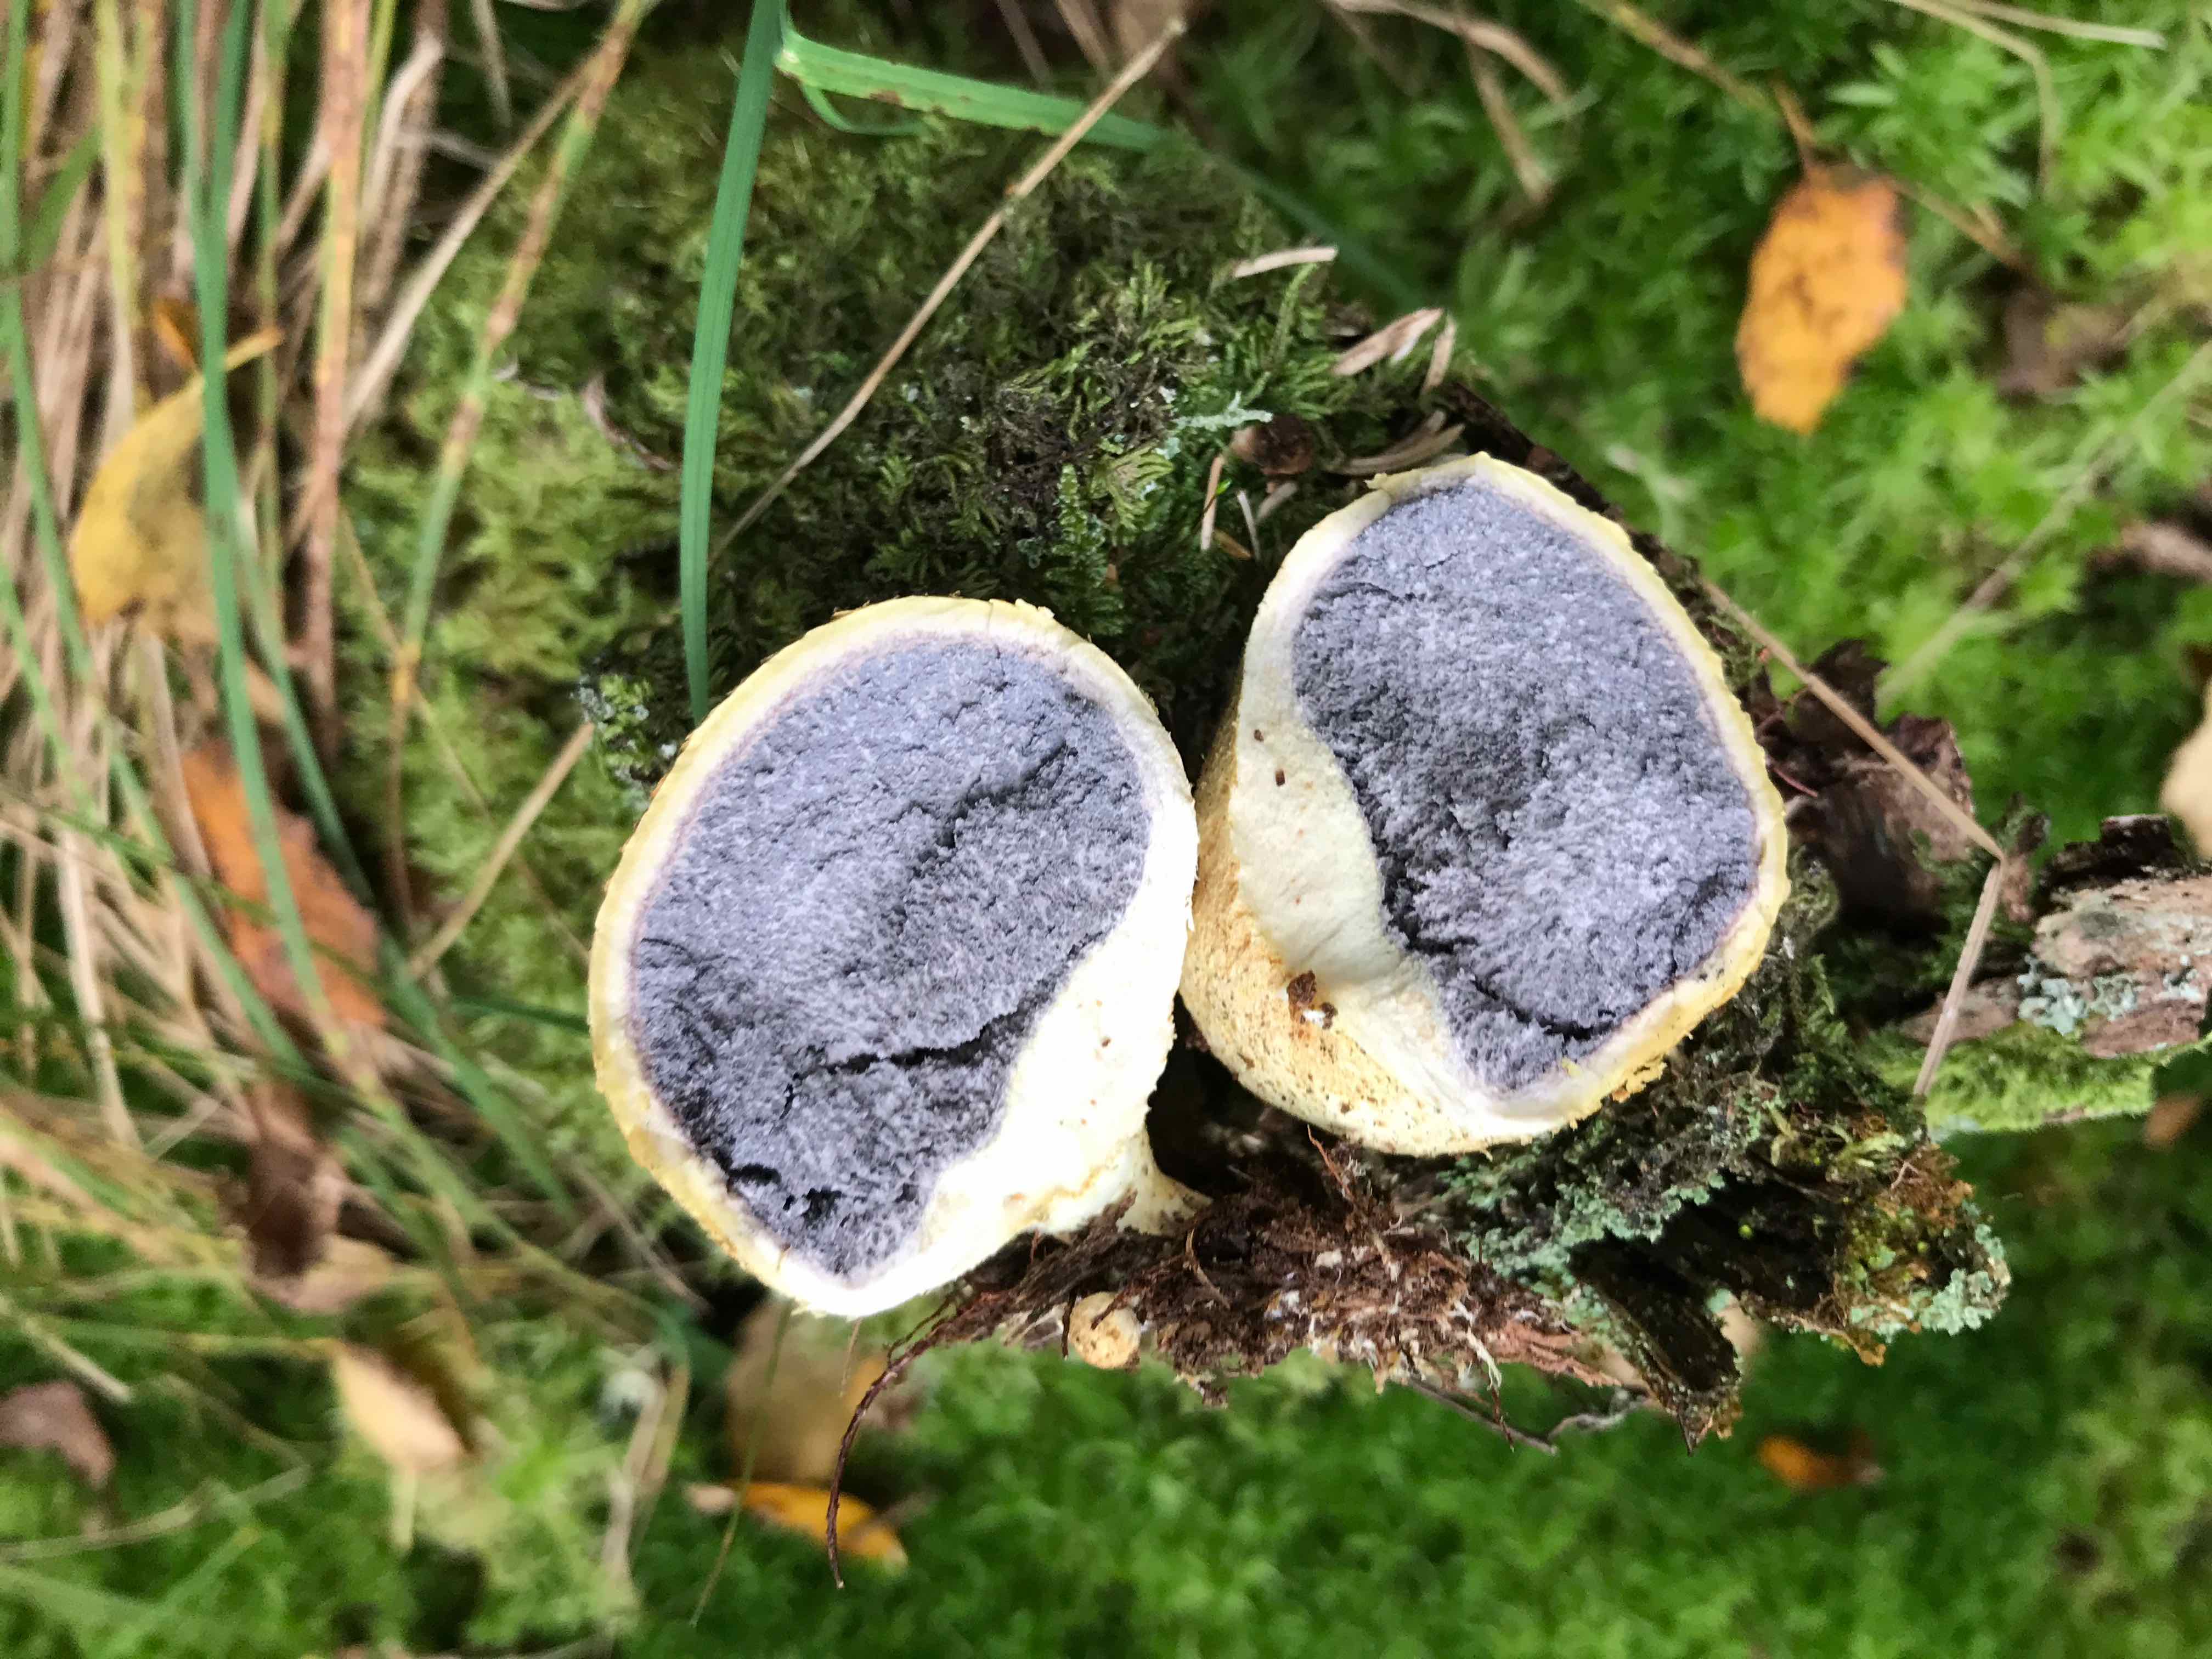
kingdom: Fungi
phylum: Basidiomycota
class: Agaricomycetes
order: Boletales
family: Sclerodermataceae
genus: Scleroderma
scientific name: Scleroderma citrinum
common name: almindelig bruskbold
